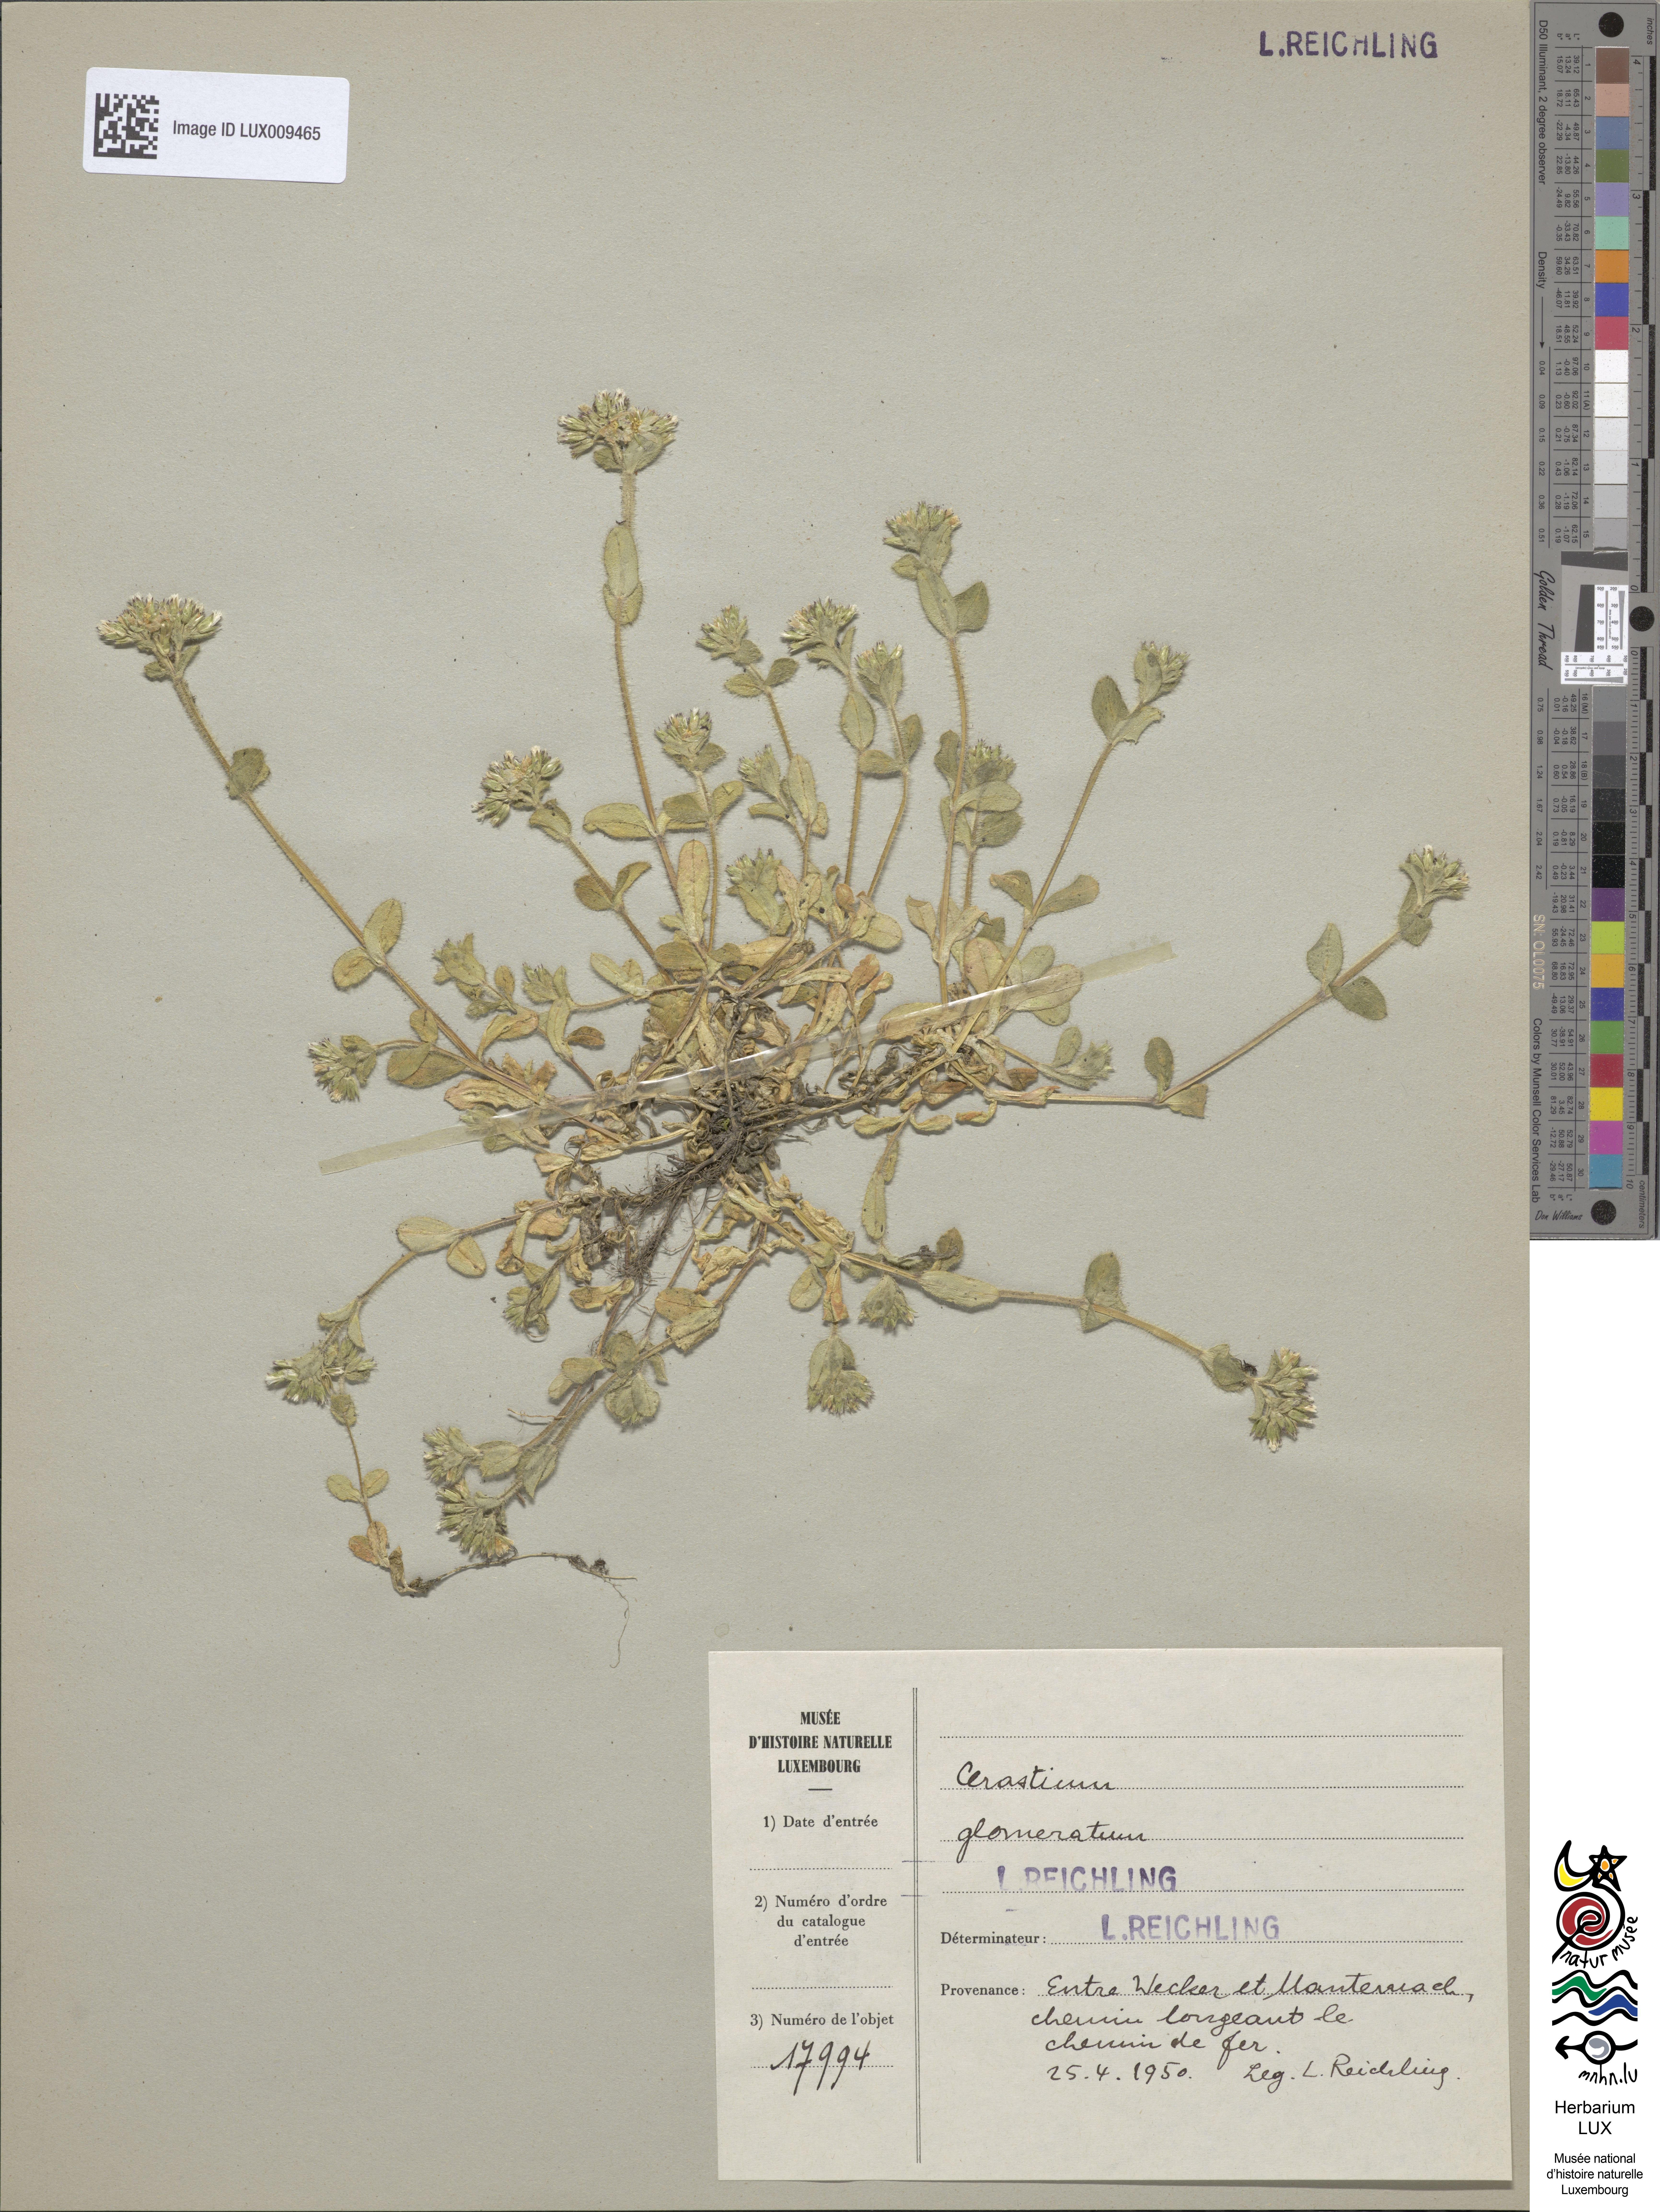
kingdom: Plantae
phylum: Tracheophyta
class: Magnoliopsida
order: Caryophyllales
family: Caryophyllaceae
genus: Cerastium
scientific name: Cerastium glomeratum
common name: Sticky chickweed
